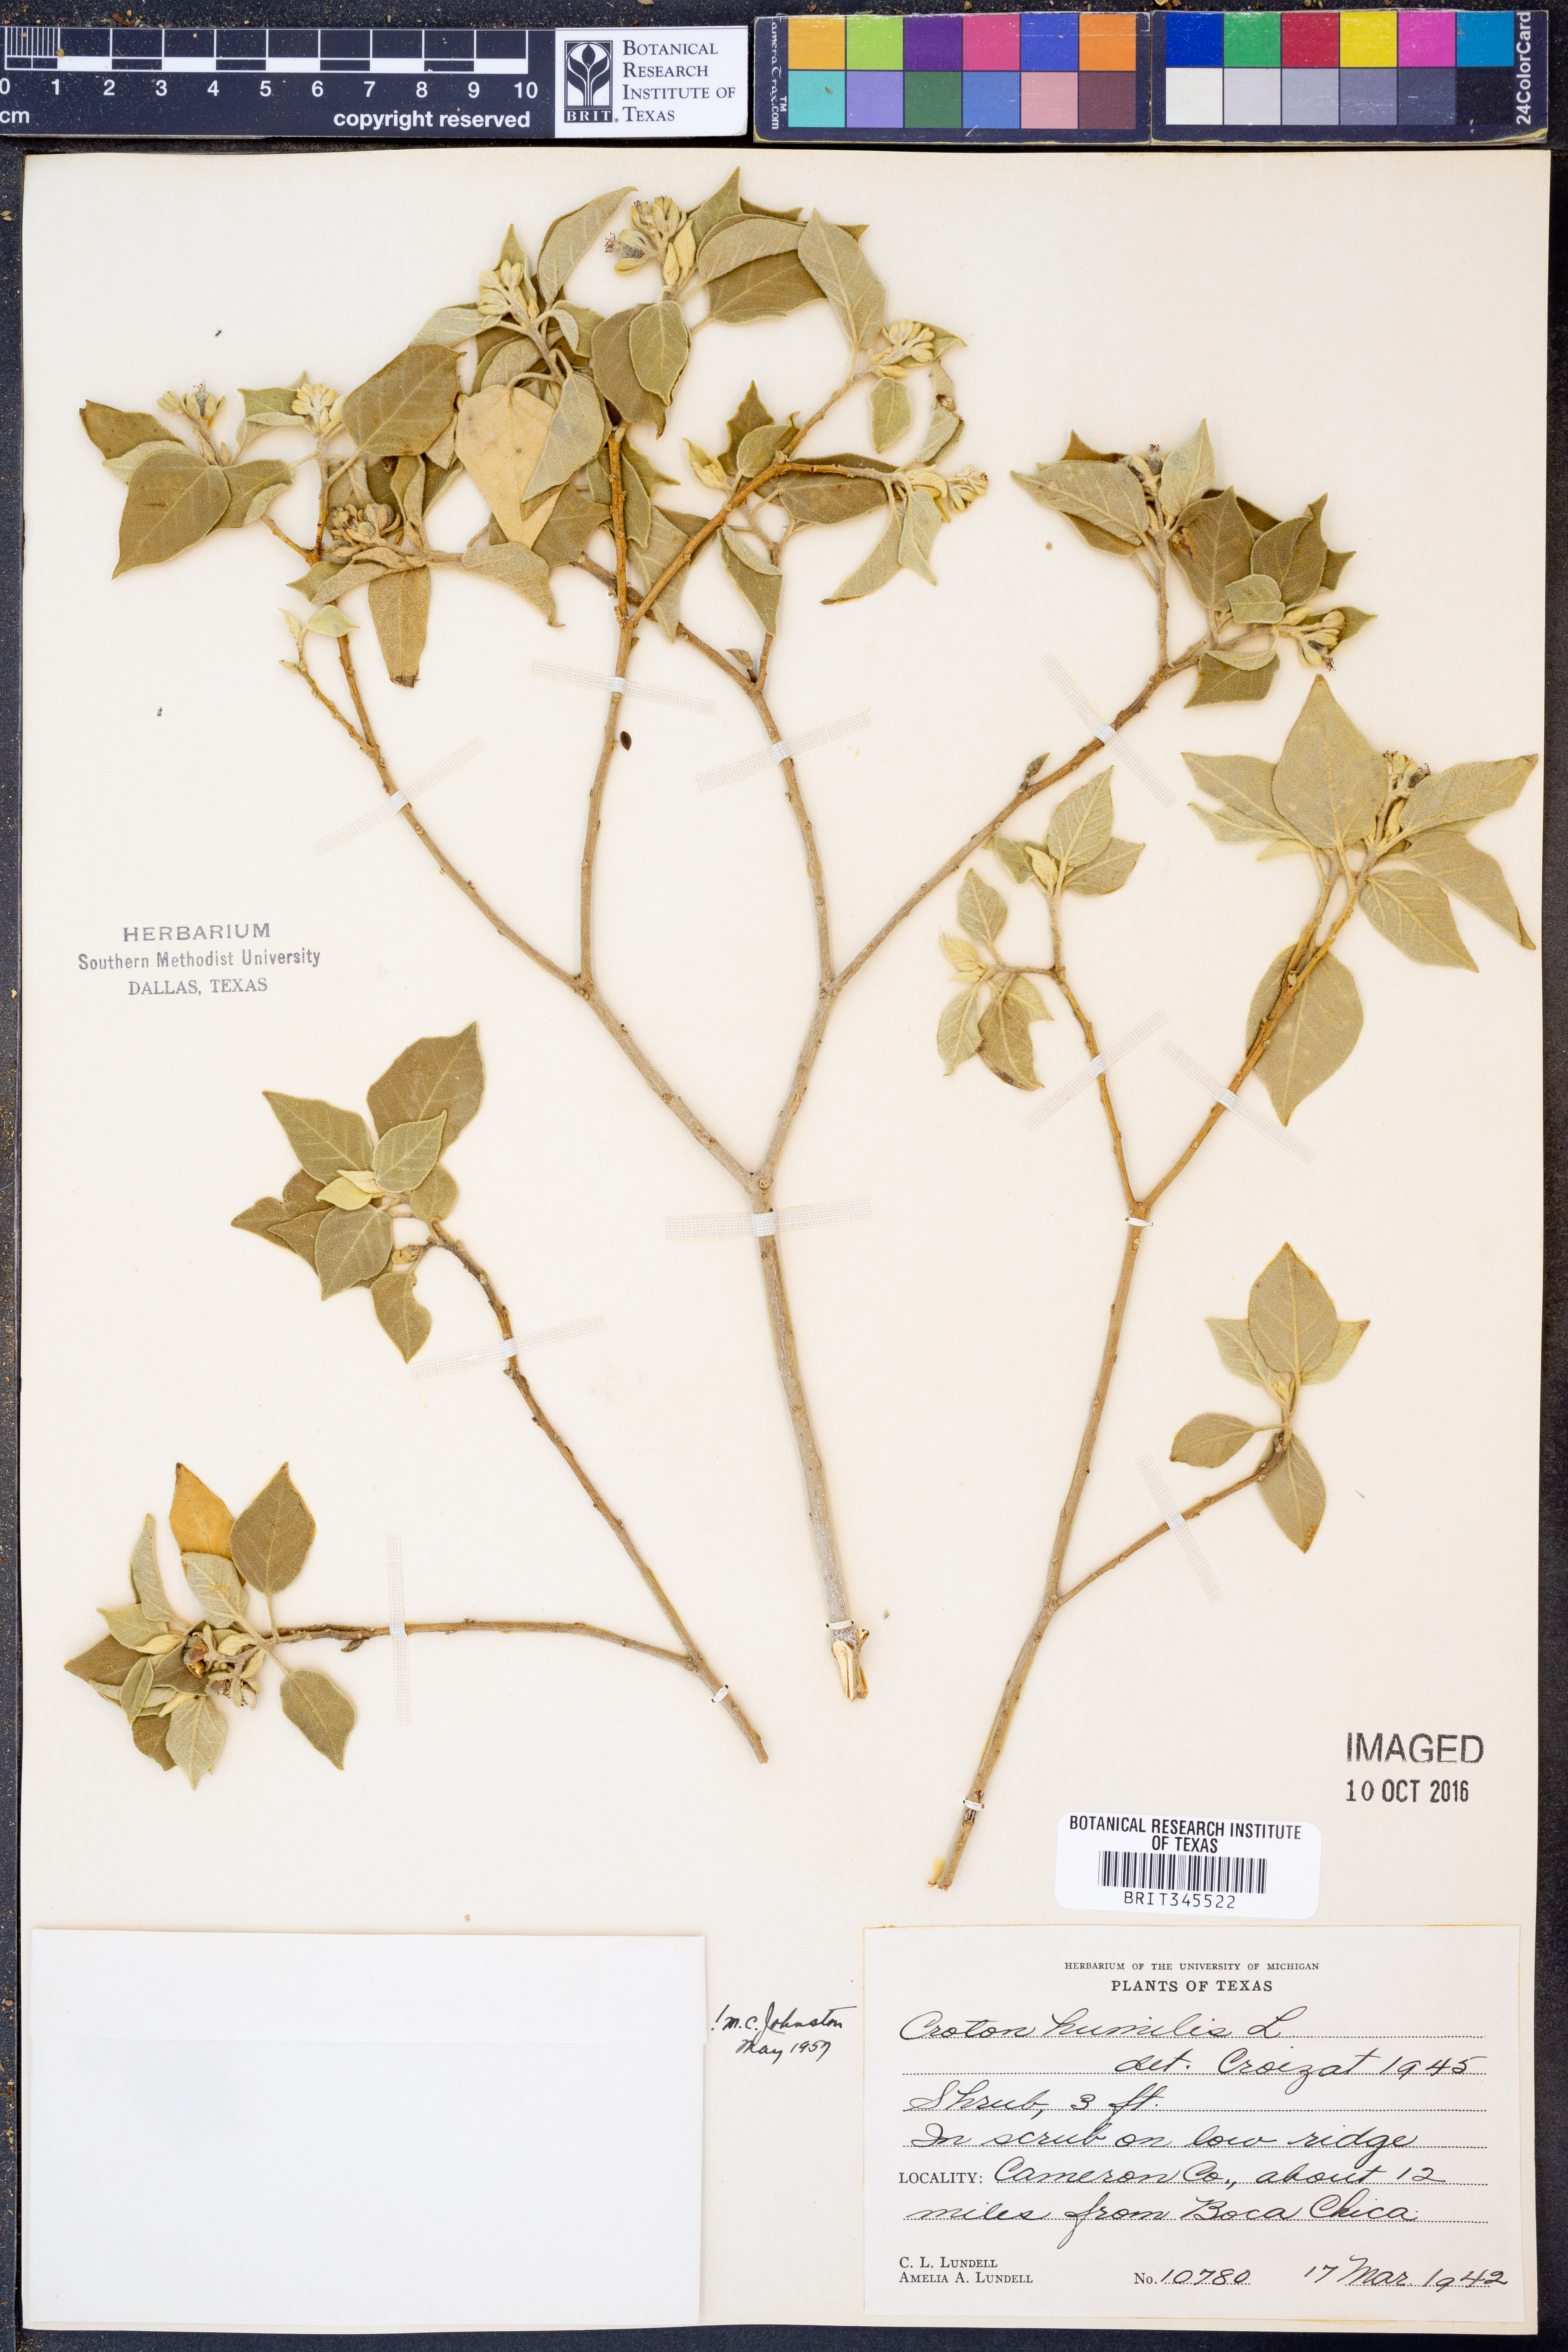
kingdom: Plantae
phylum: Tracheophyta
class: Magnoliopsida
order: Malpighiales
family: Euphorbiaceae
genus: Croton
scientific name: Croton humilis
